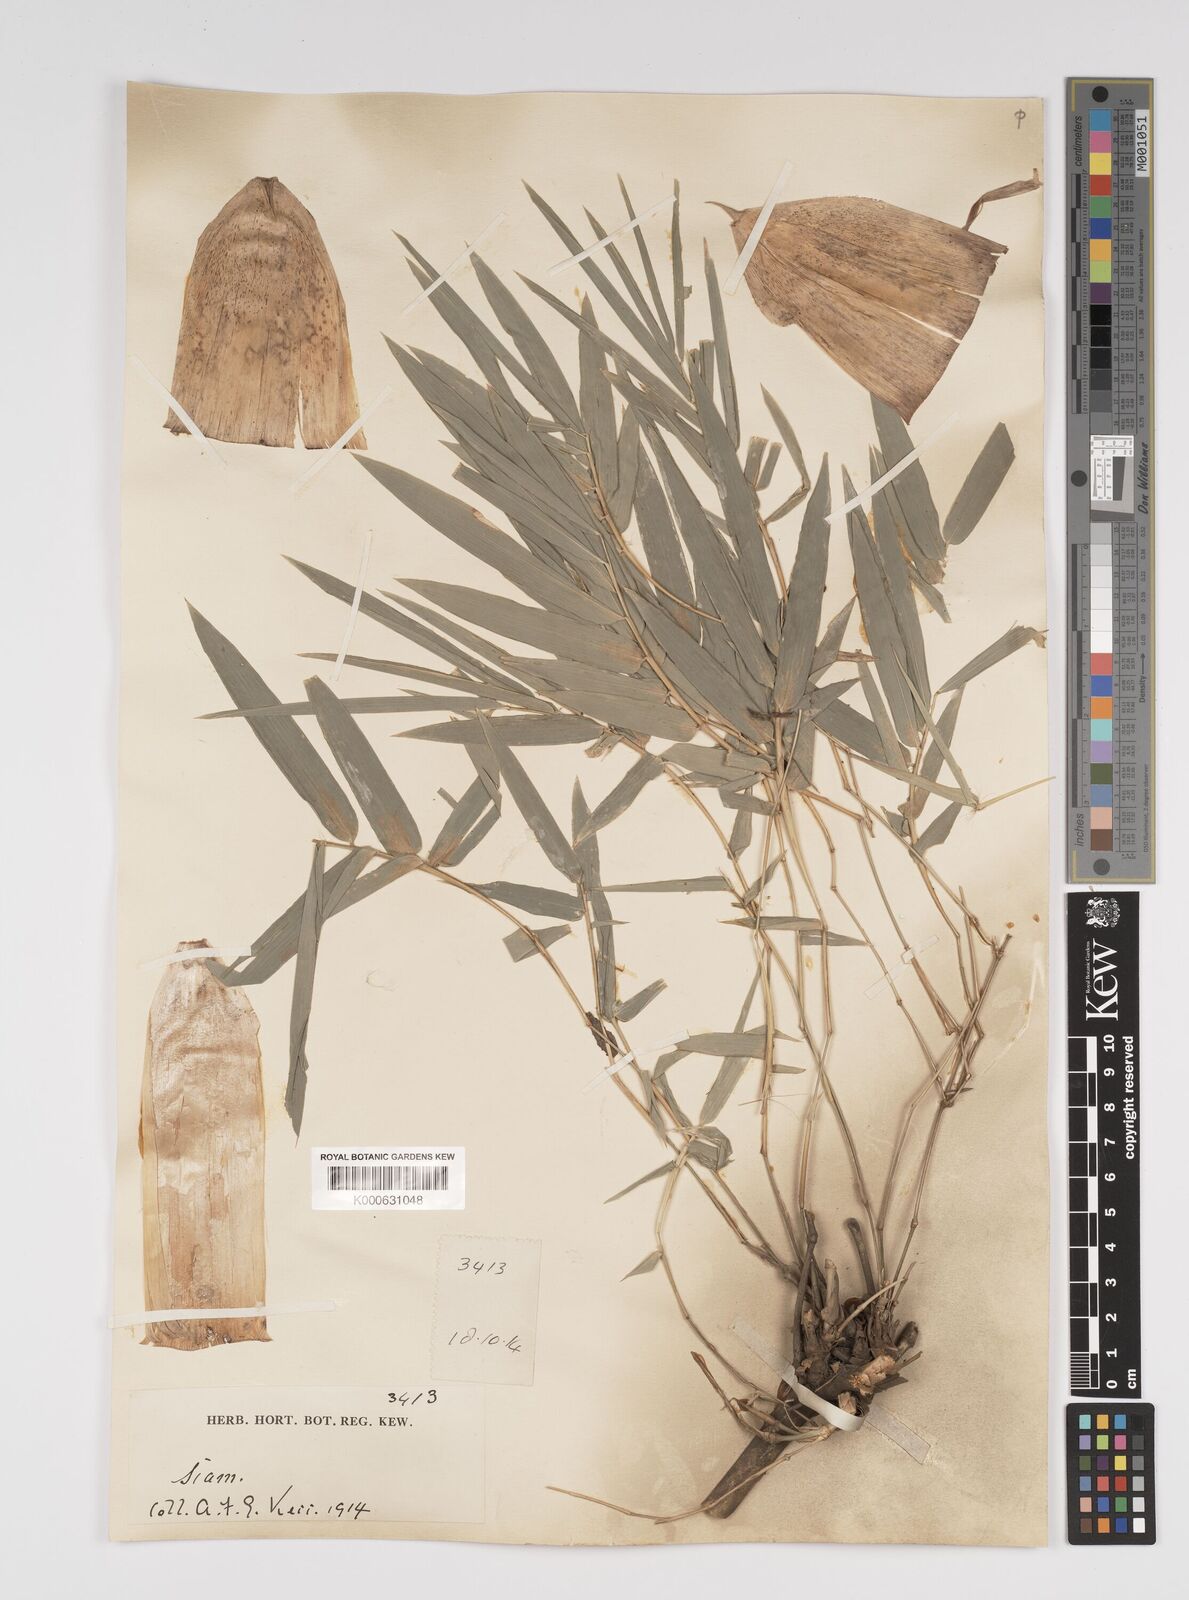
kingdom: Plantae
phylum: Tracheophyta
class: Liliopsida
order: Poales
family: Poaceae
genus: Bambusa
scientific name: Bambusa
